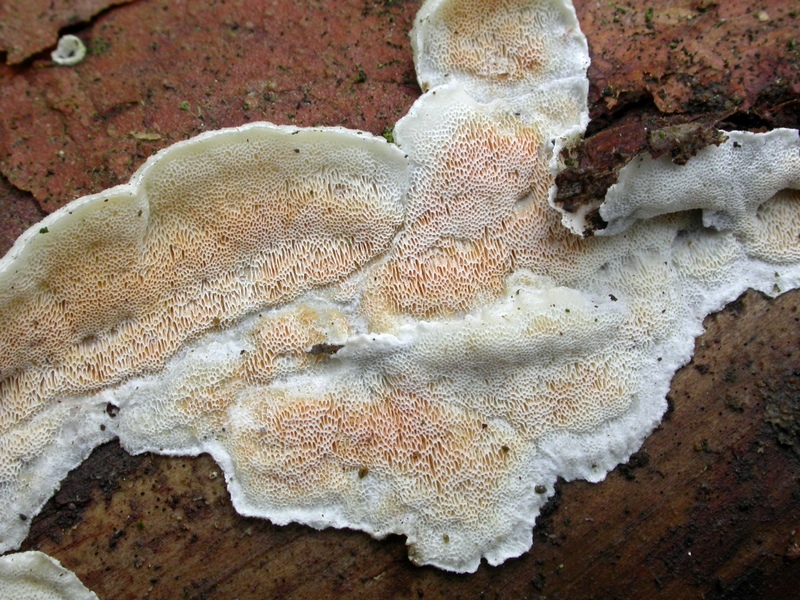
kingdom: Fungi
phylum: Basidiomycota
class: Agaricomycetes
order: Polyporales
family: Incrustoporiaceae
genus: Skeletocutis
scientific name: Skeletocutis amorpha
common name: orange krystalporesvamp
